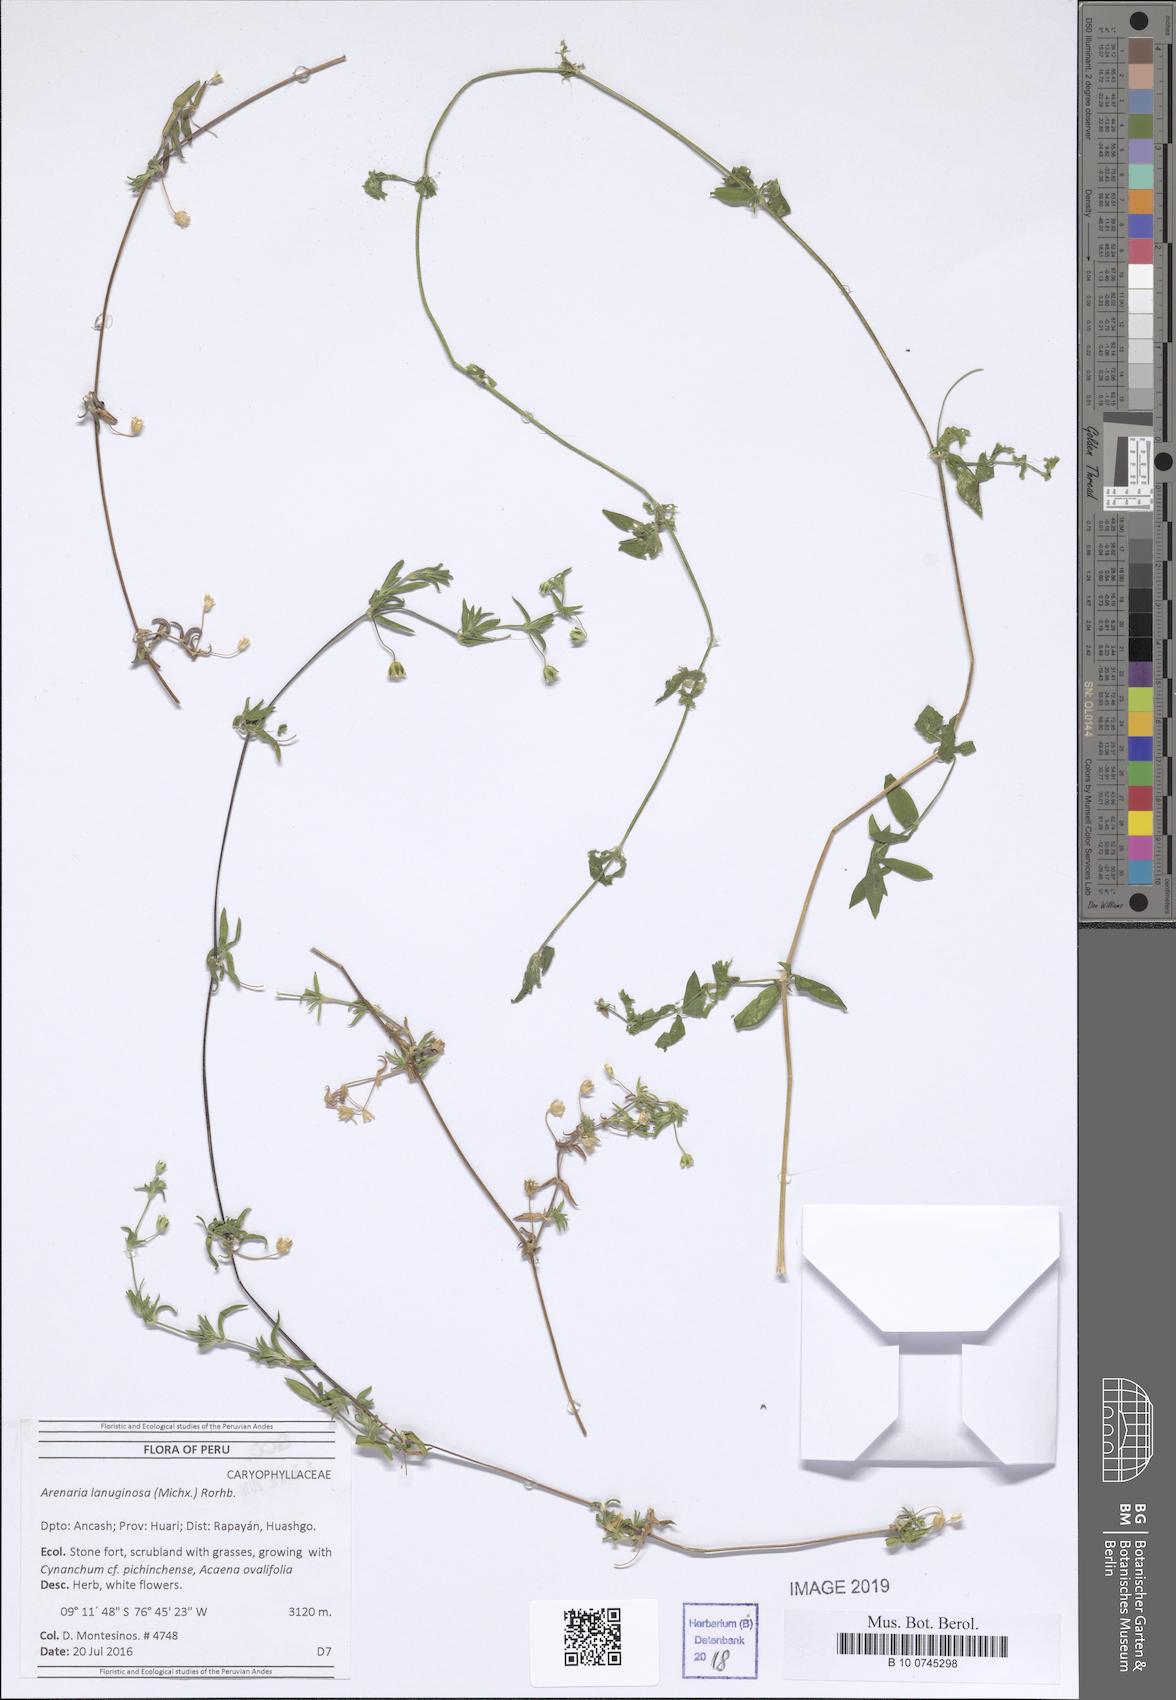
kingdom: Plantae
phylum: Tracheophyta
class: Magnoliopsida
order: Caryophyllales
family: Caryophyllaceae
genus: Arenaria
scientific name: Arenaria lanuginosa
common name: Spread sandwort
